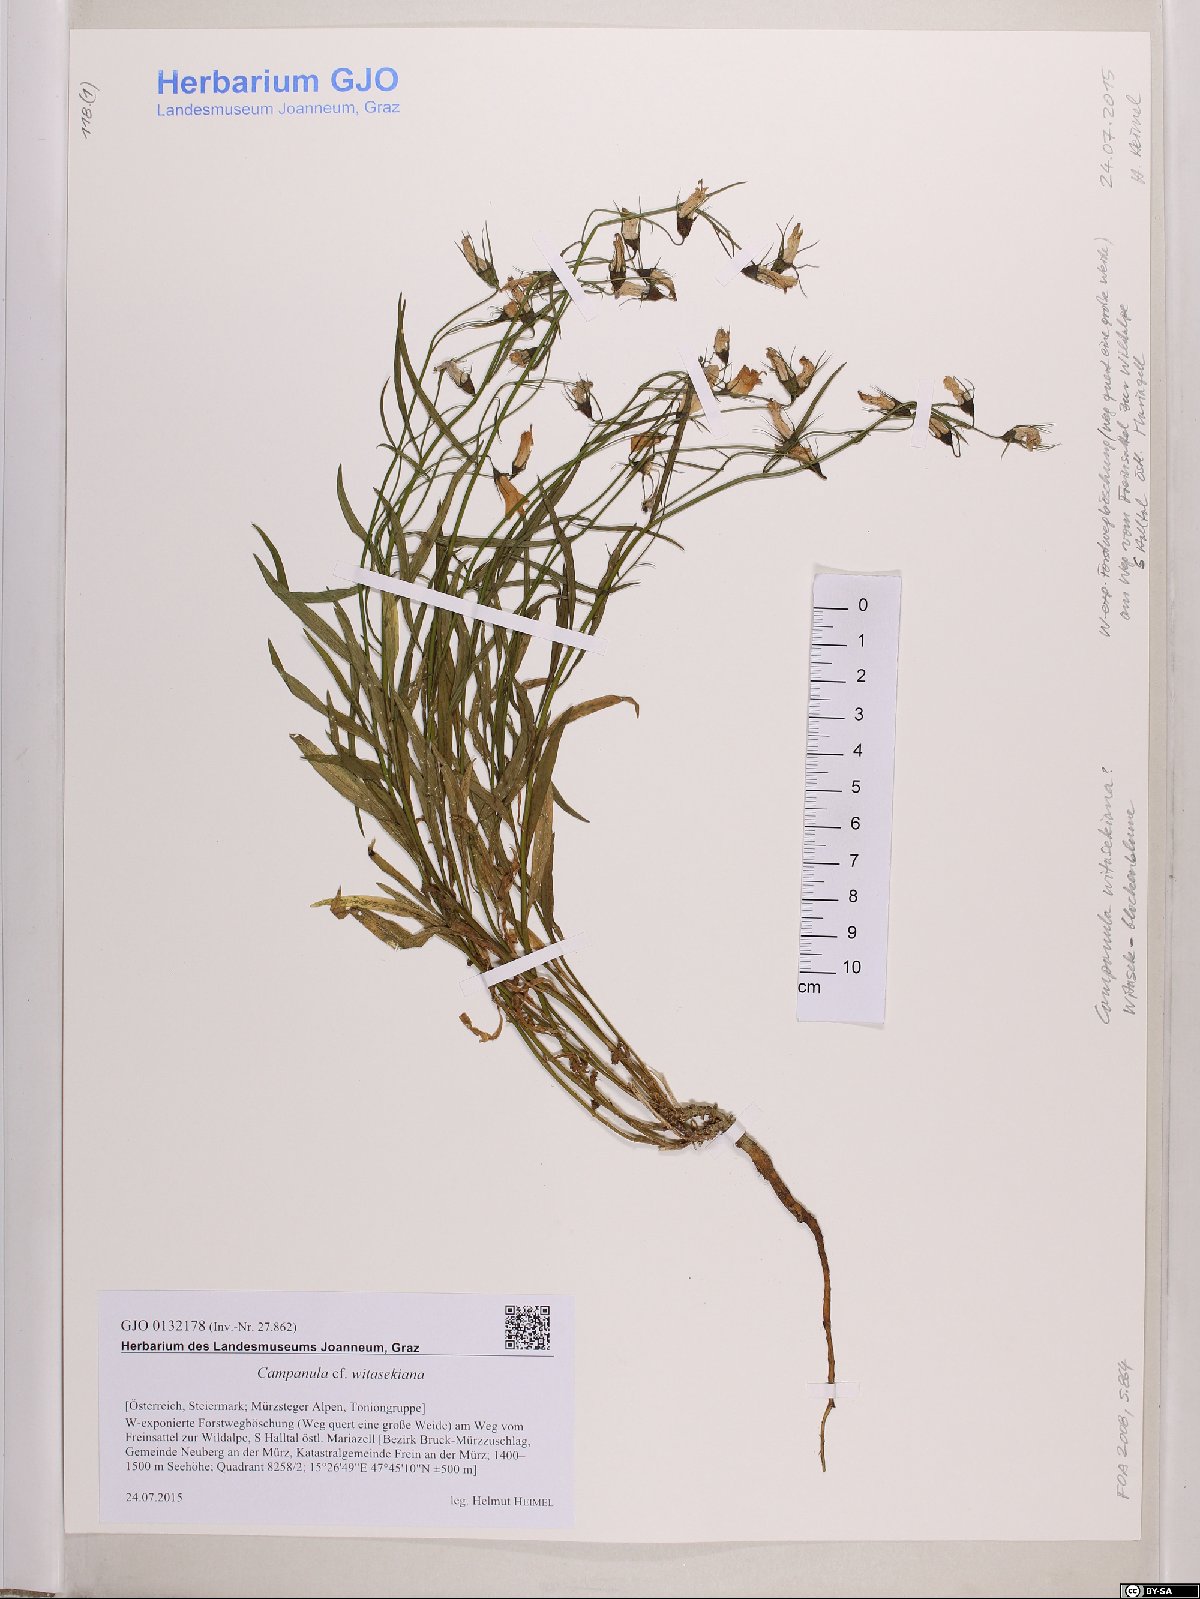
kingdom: Plantae
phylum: Tracheophyta
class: Magnoliopsida
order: Asterales
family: Campanulaceae
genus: Campanula
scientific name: Campanula witasekiana
